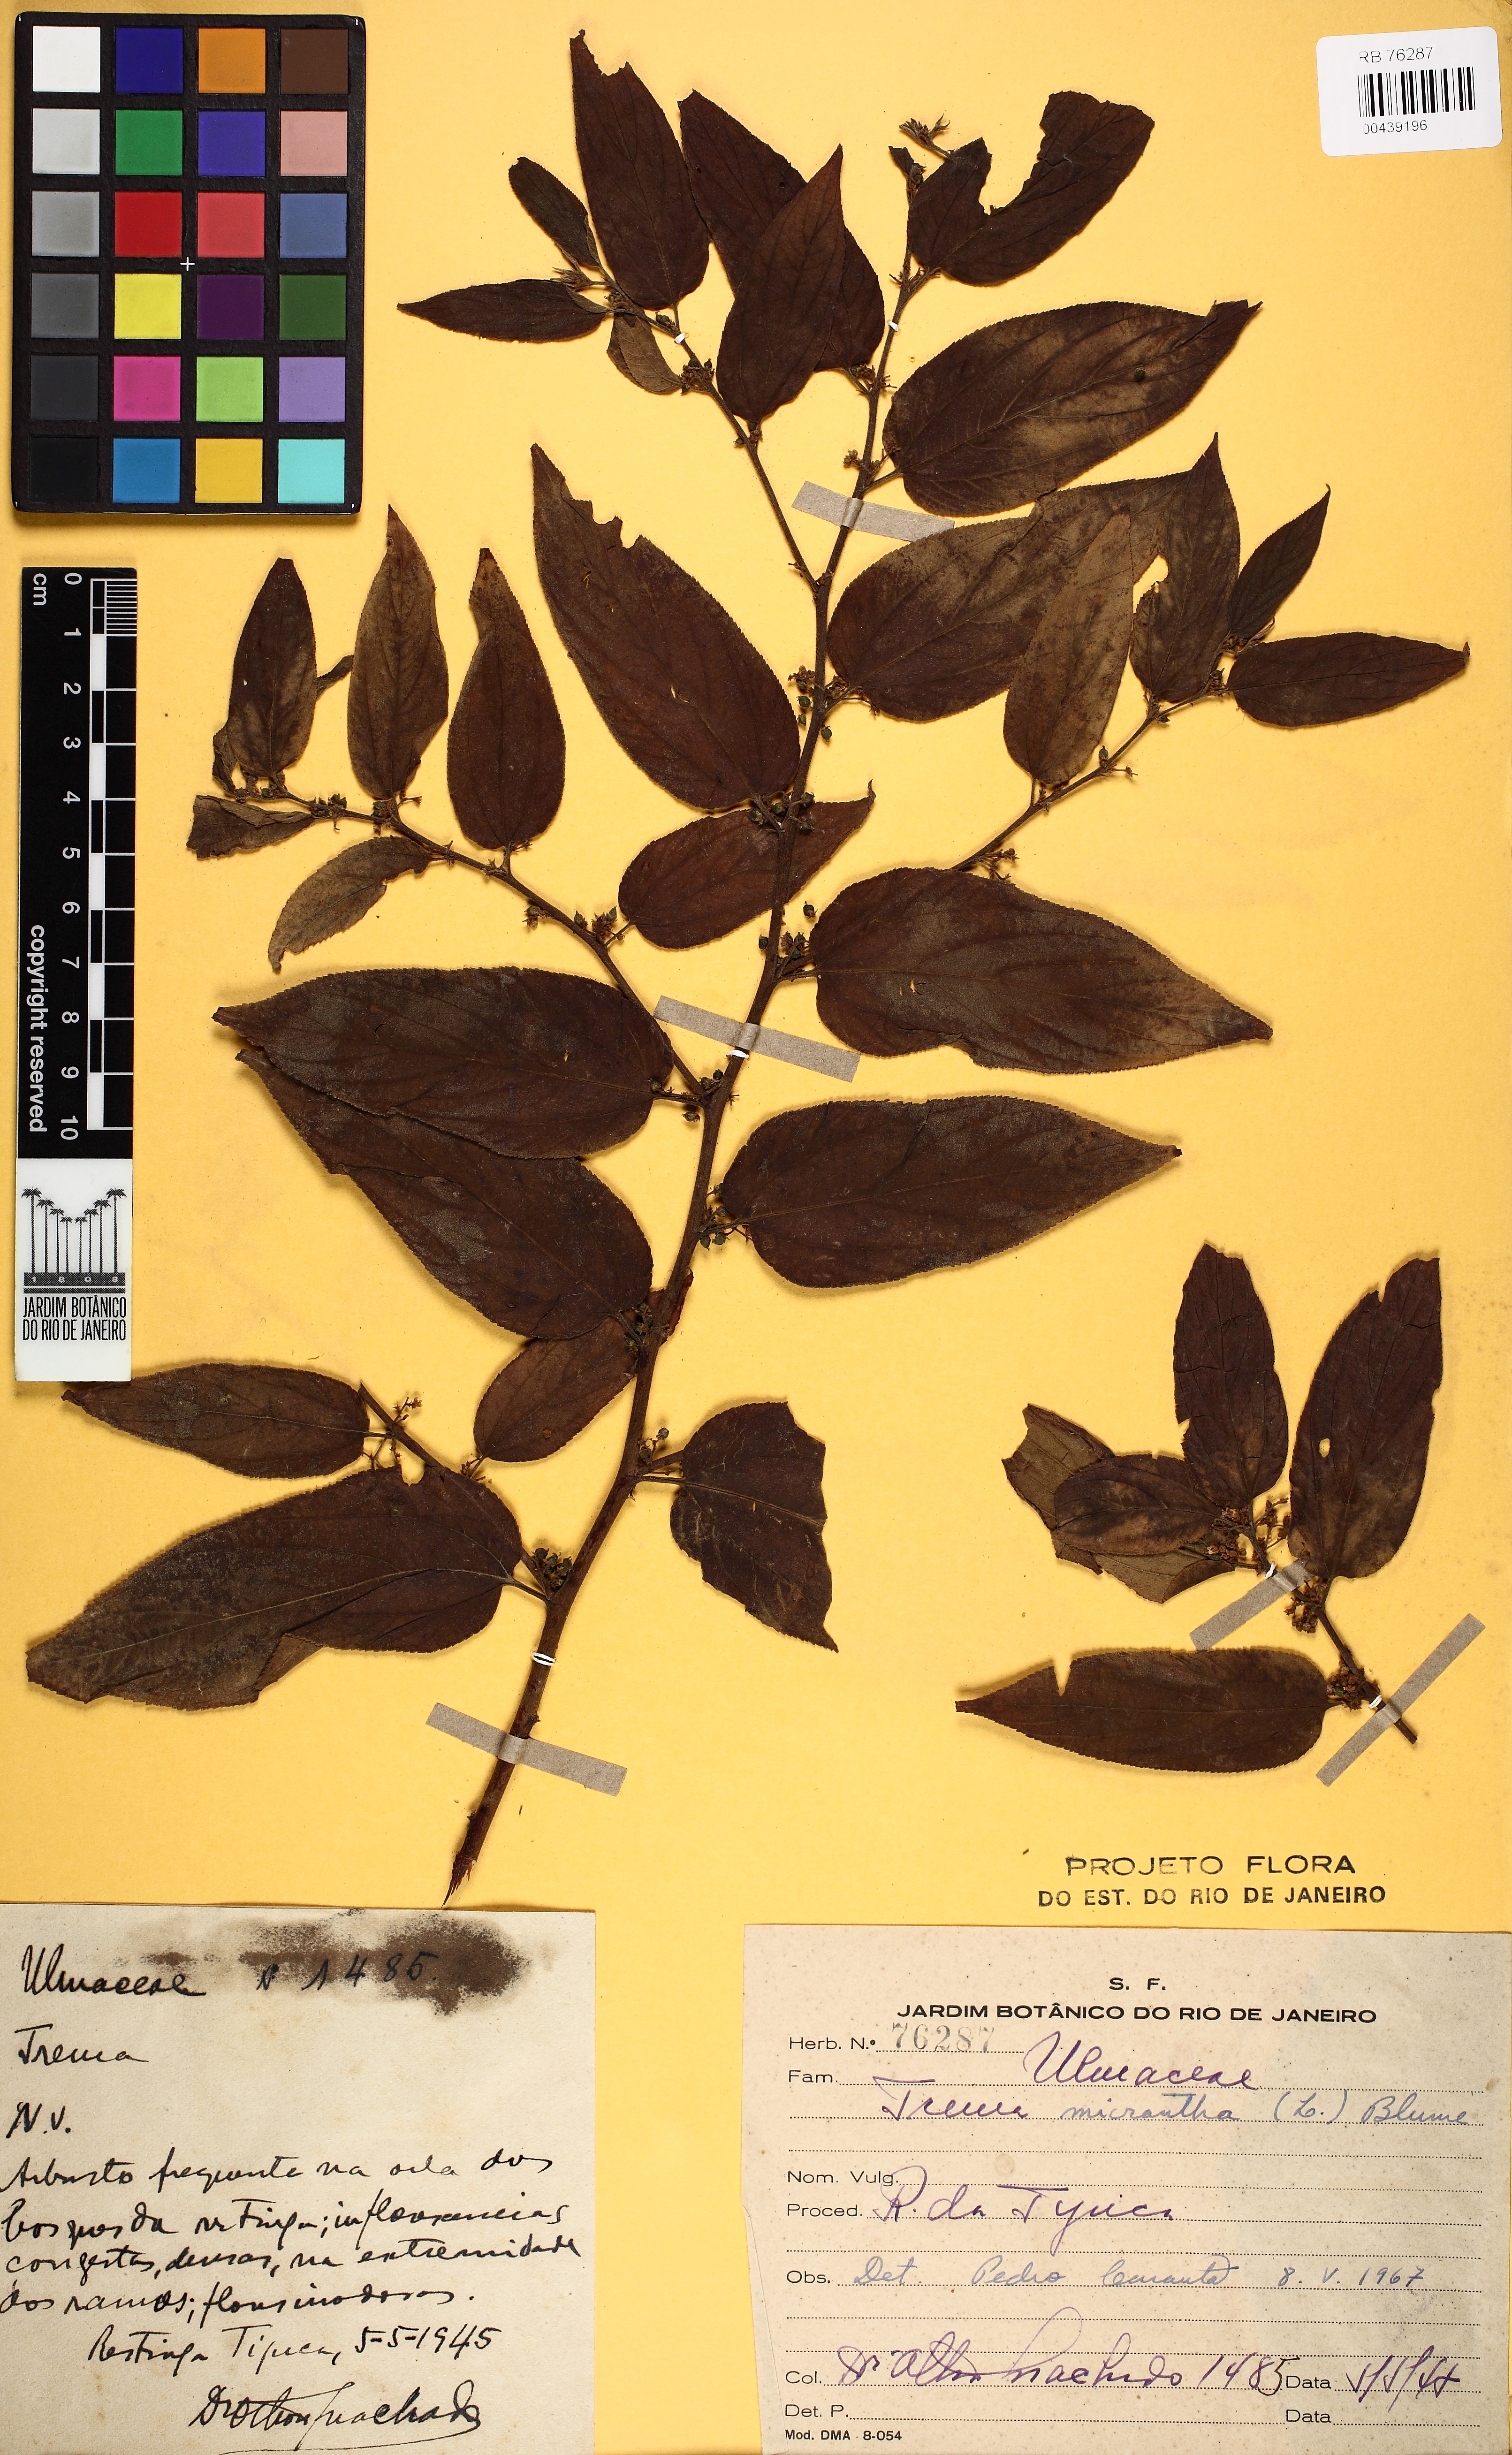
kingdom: Plantae
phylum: Tracheophyta
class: Magnoliopsida
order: Rosales
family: Cannabaceae
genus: Trema
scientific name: Trema micranthum
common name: Jamaican nettletree
